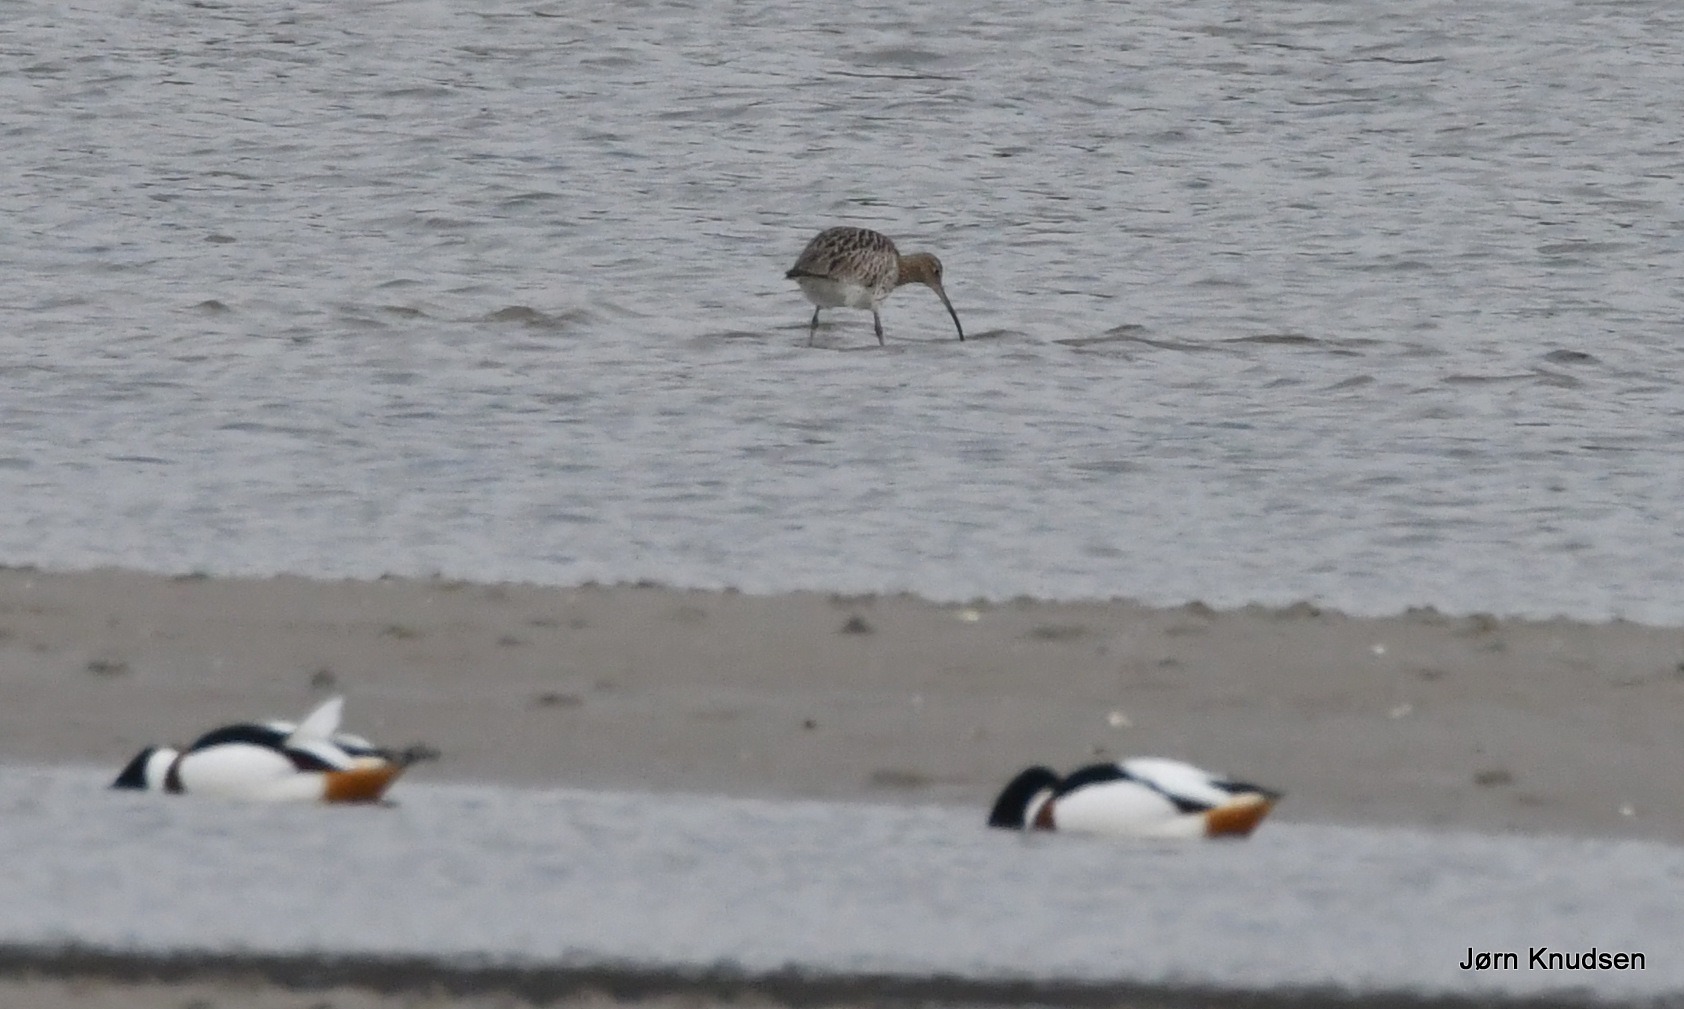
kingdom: Animalia
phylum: Chordata
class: Aves
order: Charadriiformes
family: Scolopacidae
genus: Numenius
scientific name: Numenius arquata
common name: Storspove
